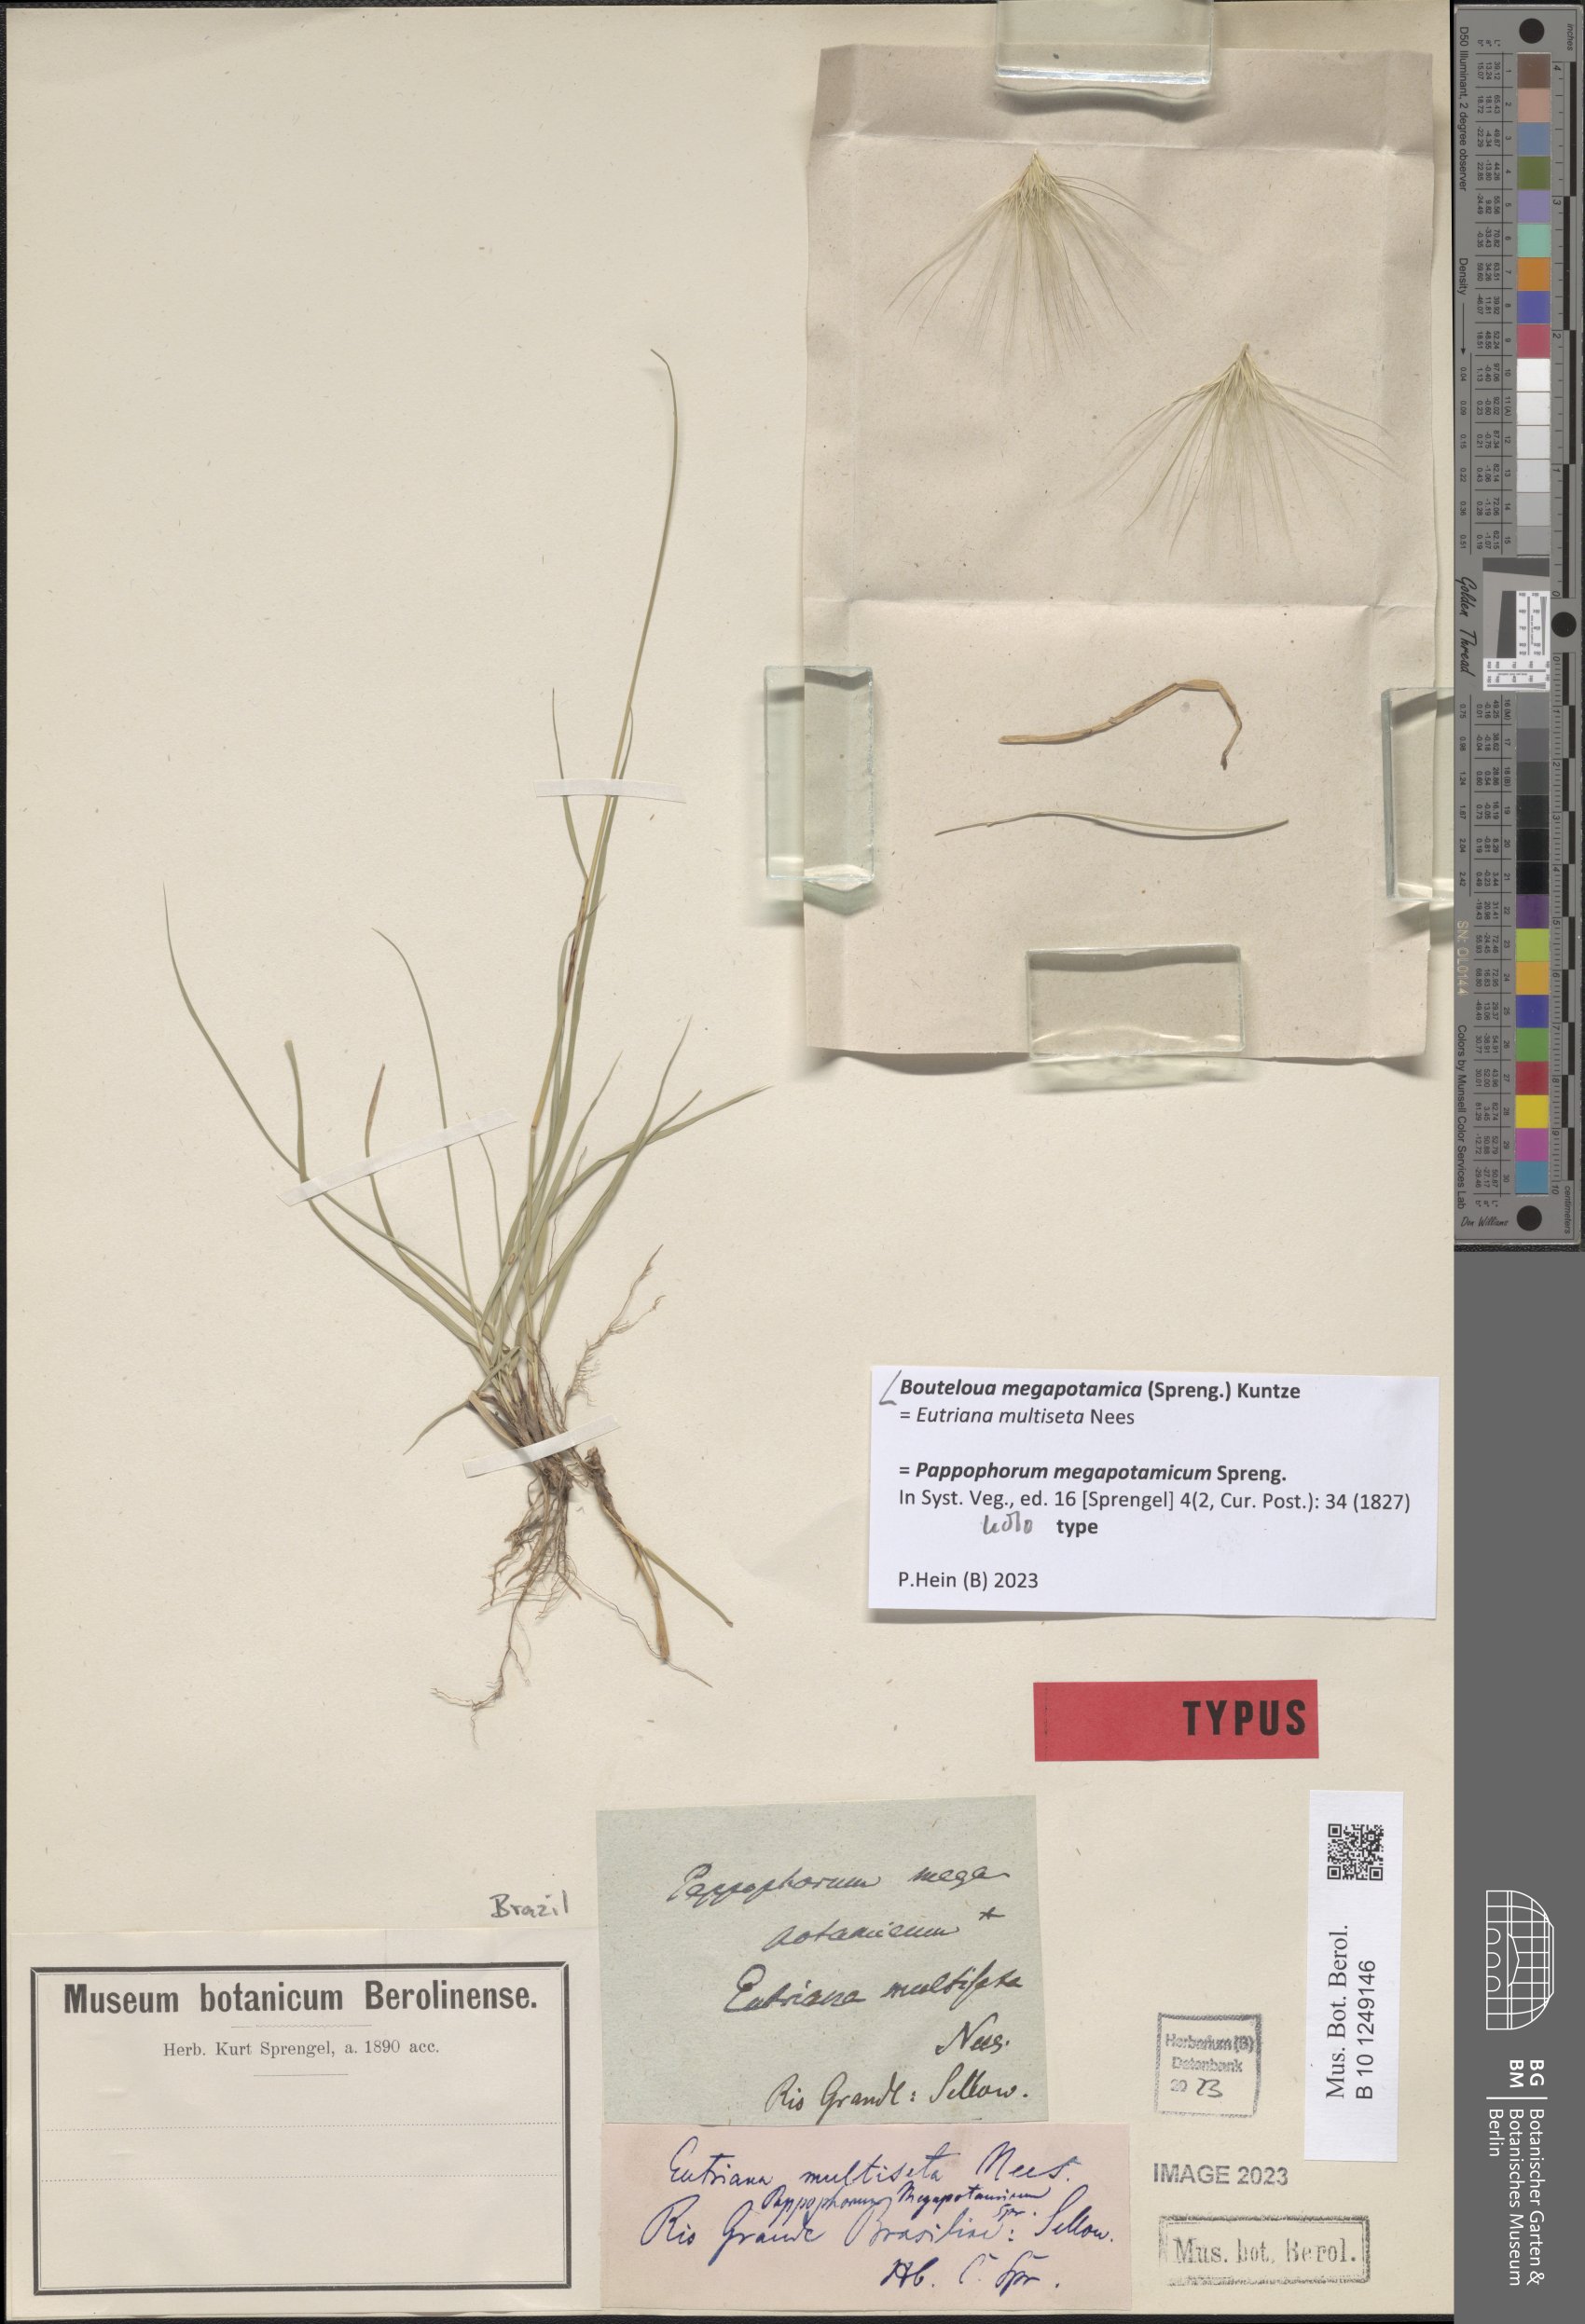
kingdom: Plantae
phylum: Tracheophyta
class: Liliopsida
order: Poales
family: Poaceae
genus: Bouteloua
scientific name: Bouteloua megapotamica
